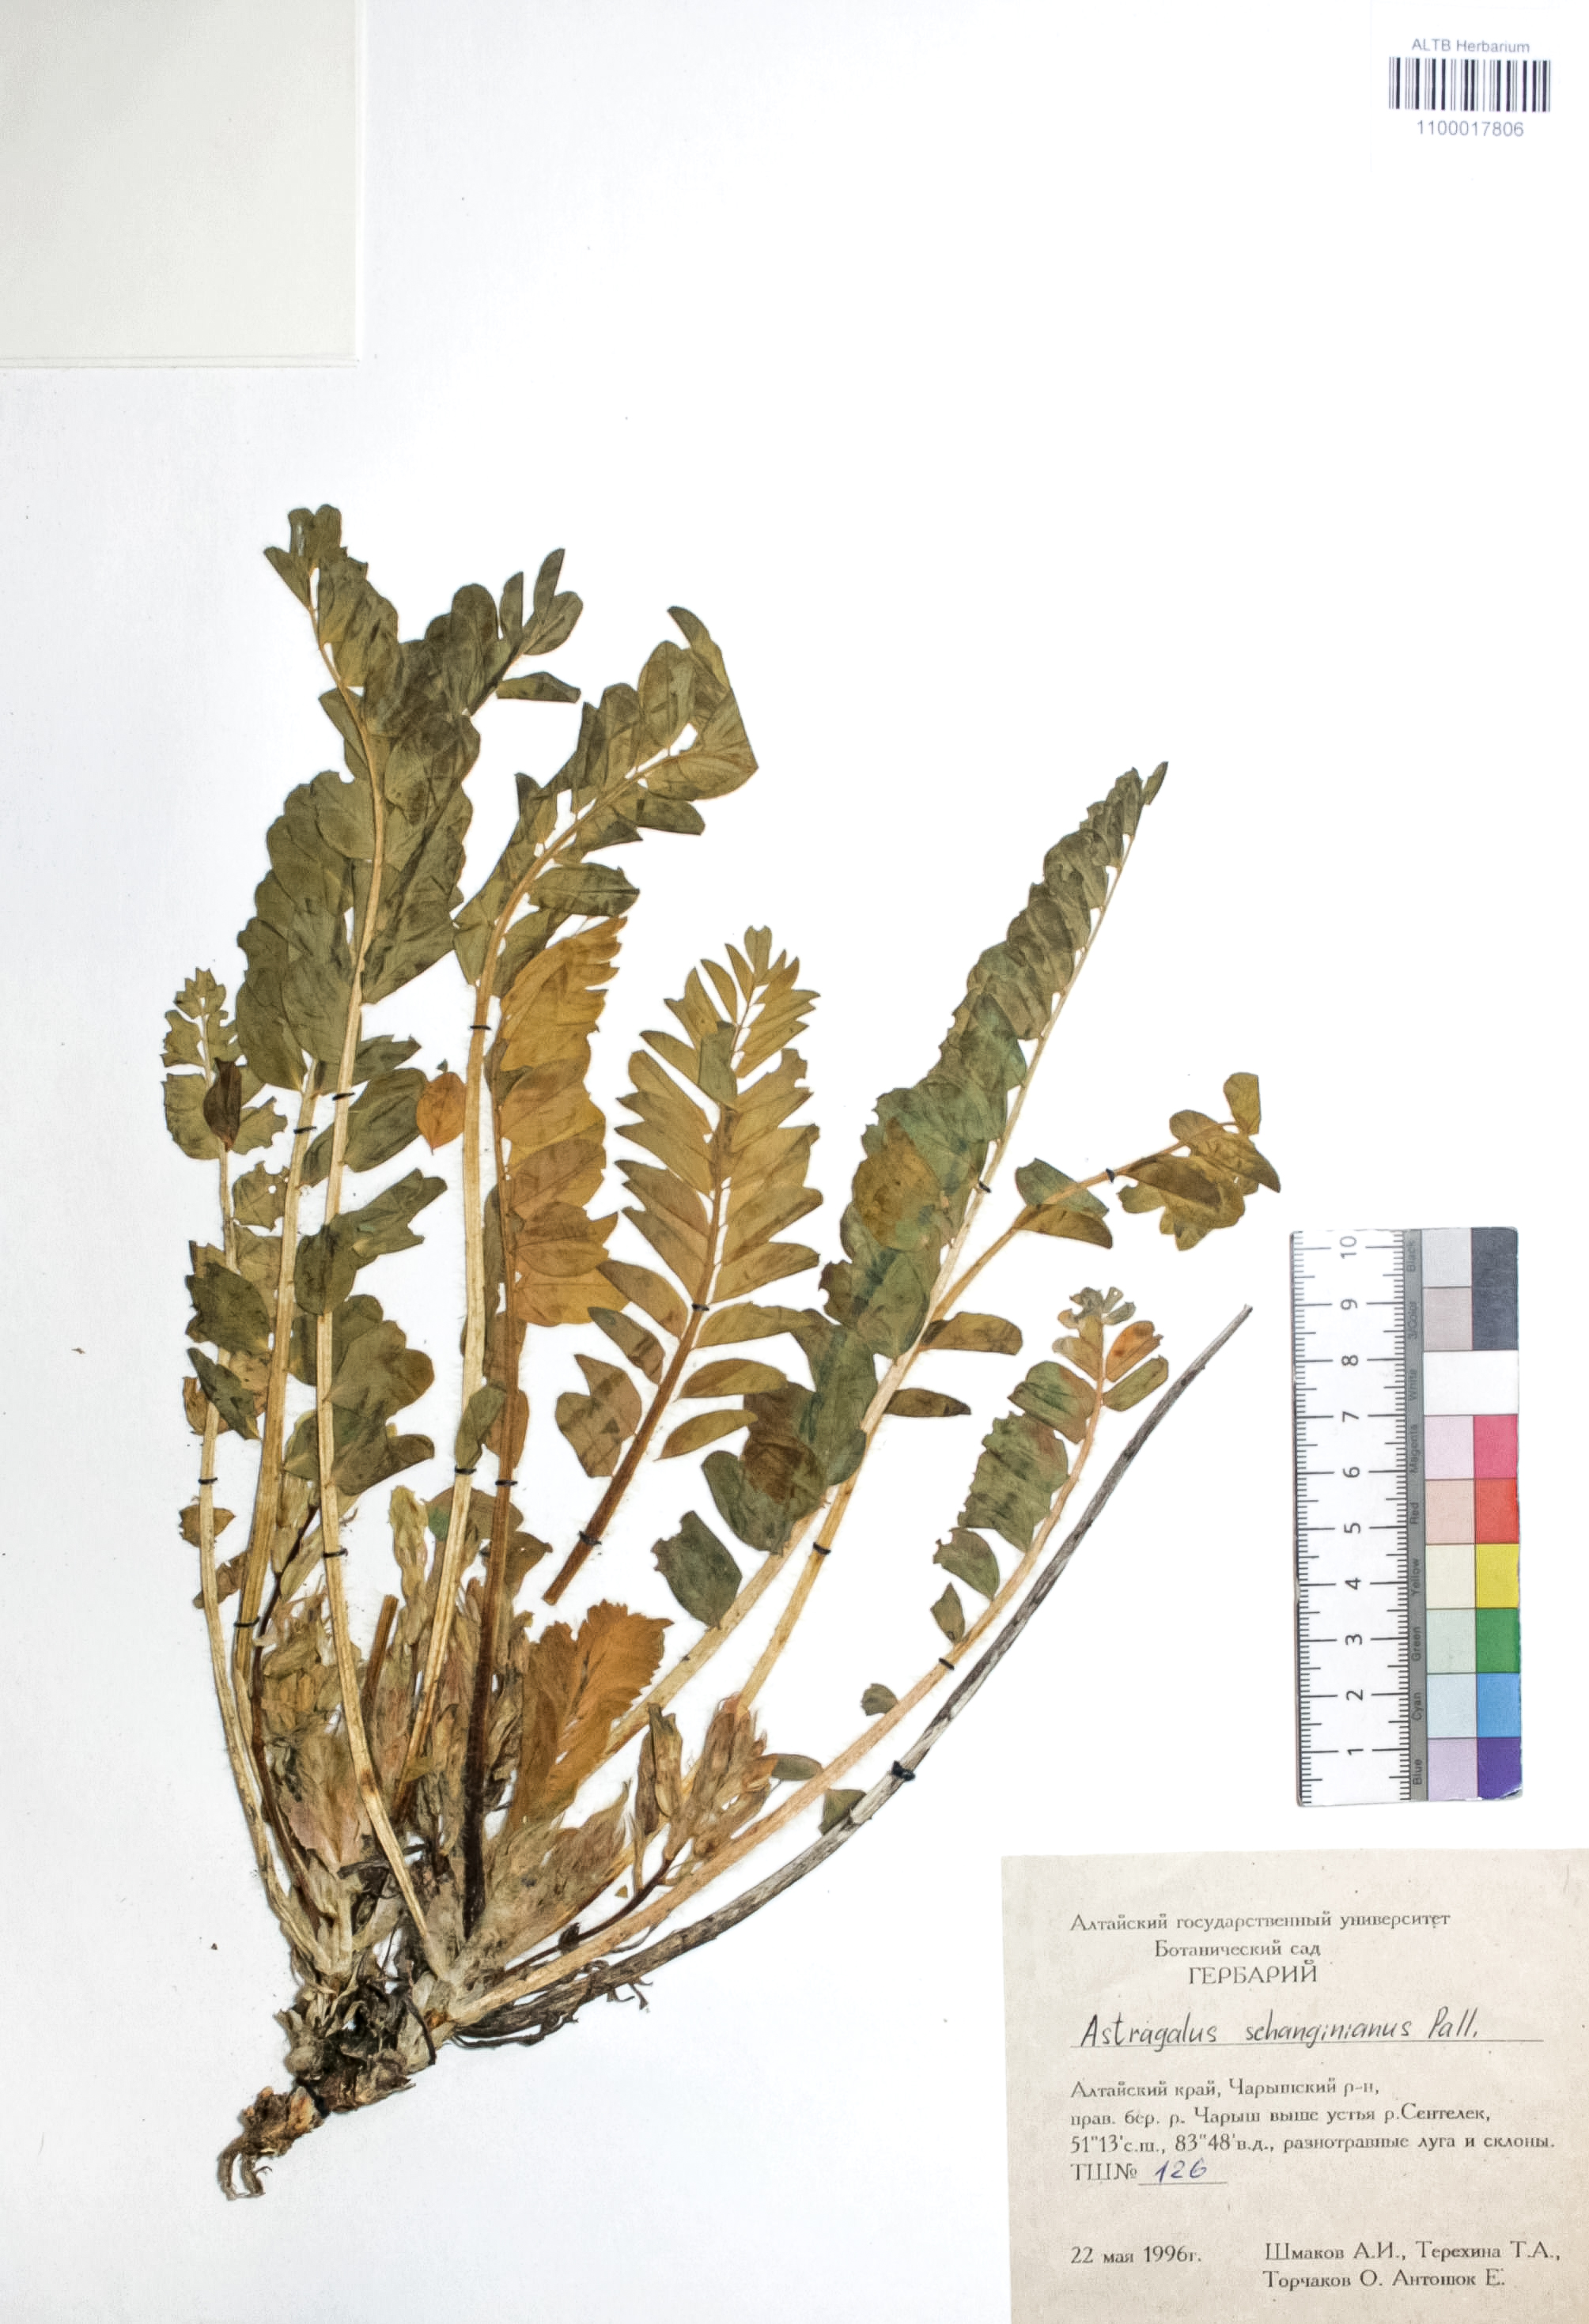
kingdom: Plantae
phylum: Tracheophyta
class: Magnoliopsida
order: Fabales
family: Fabaceae
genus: Astragalus
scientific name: Astragalus schanginianus
